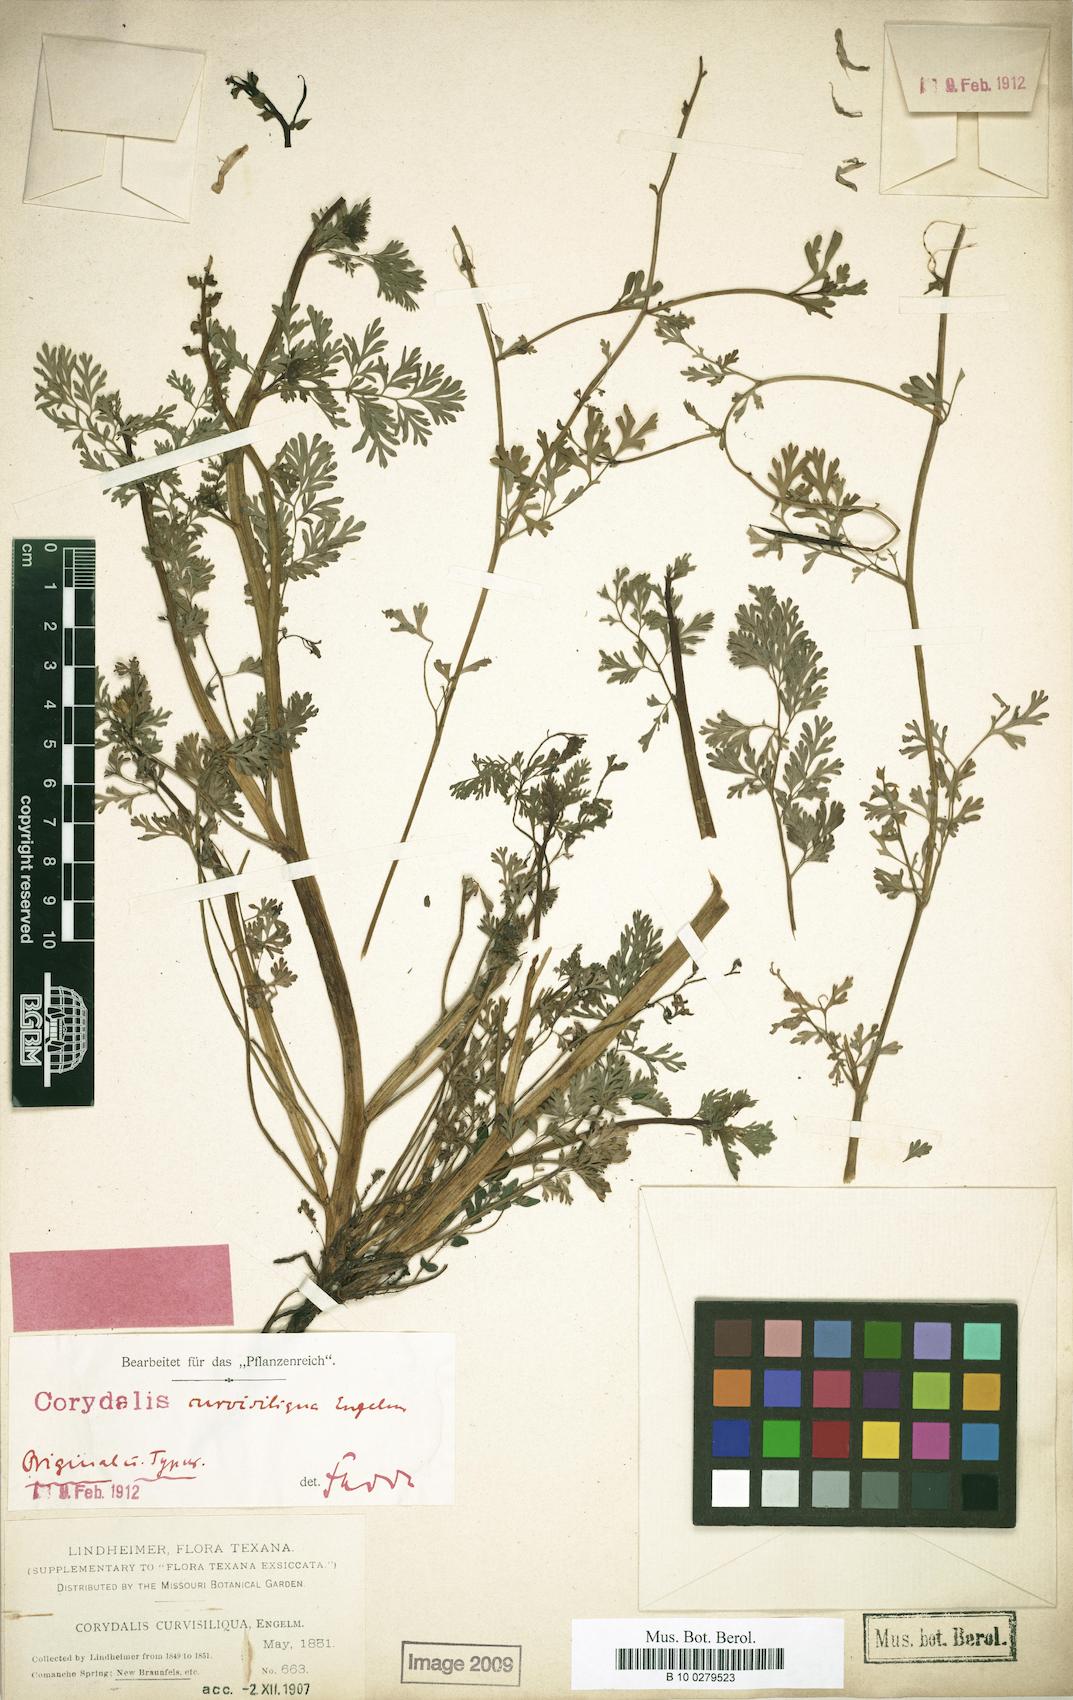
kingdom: Plantae
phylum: Tracheophyta
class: Magnoliopsida
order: Ranunculales
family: Papaveraceae
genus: Corydalis
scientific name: Corydalis curvisiliqua
